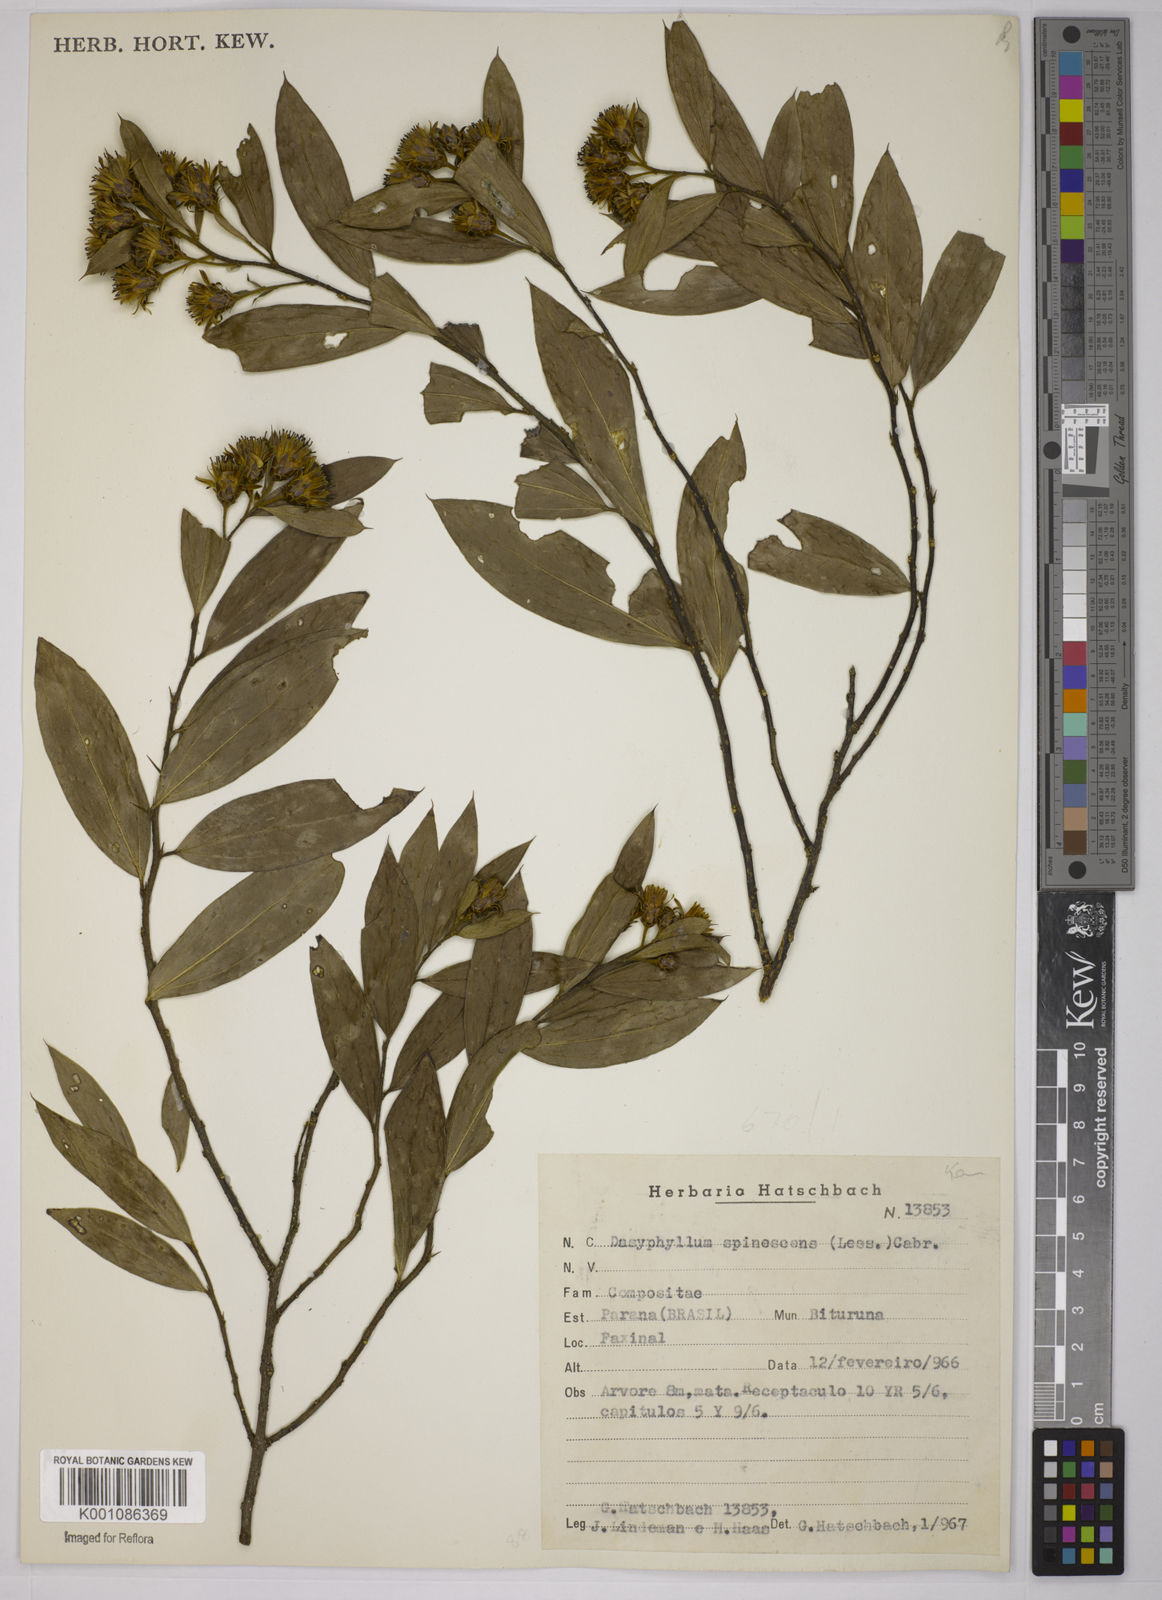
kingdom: Plantae
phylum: Tracheophyta
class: Magnoliopsida
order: Asterales
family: Asteraceae
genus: Dasyphyllum
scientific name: Dasyphyllum spinescens
